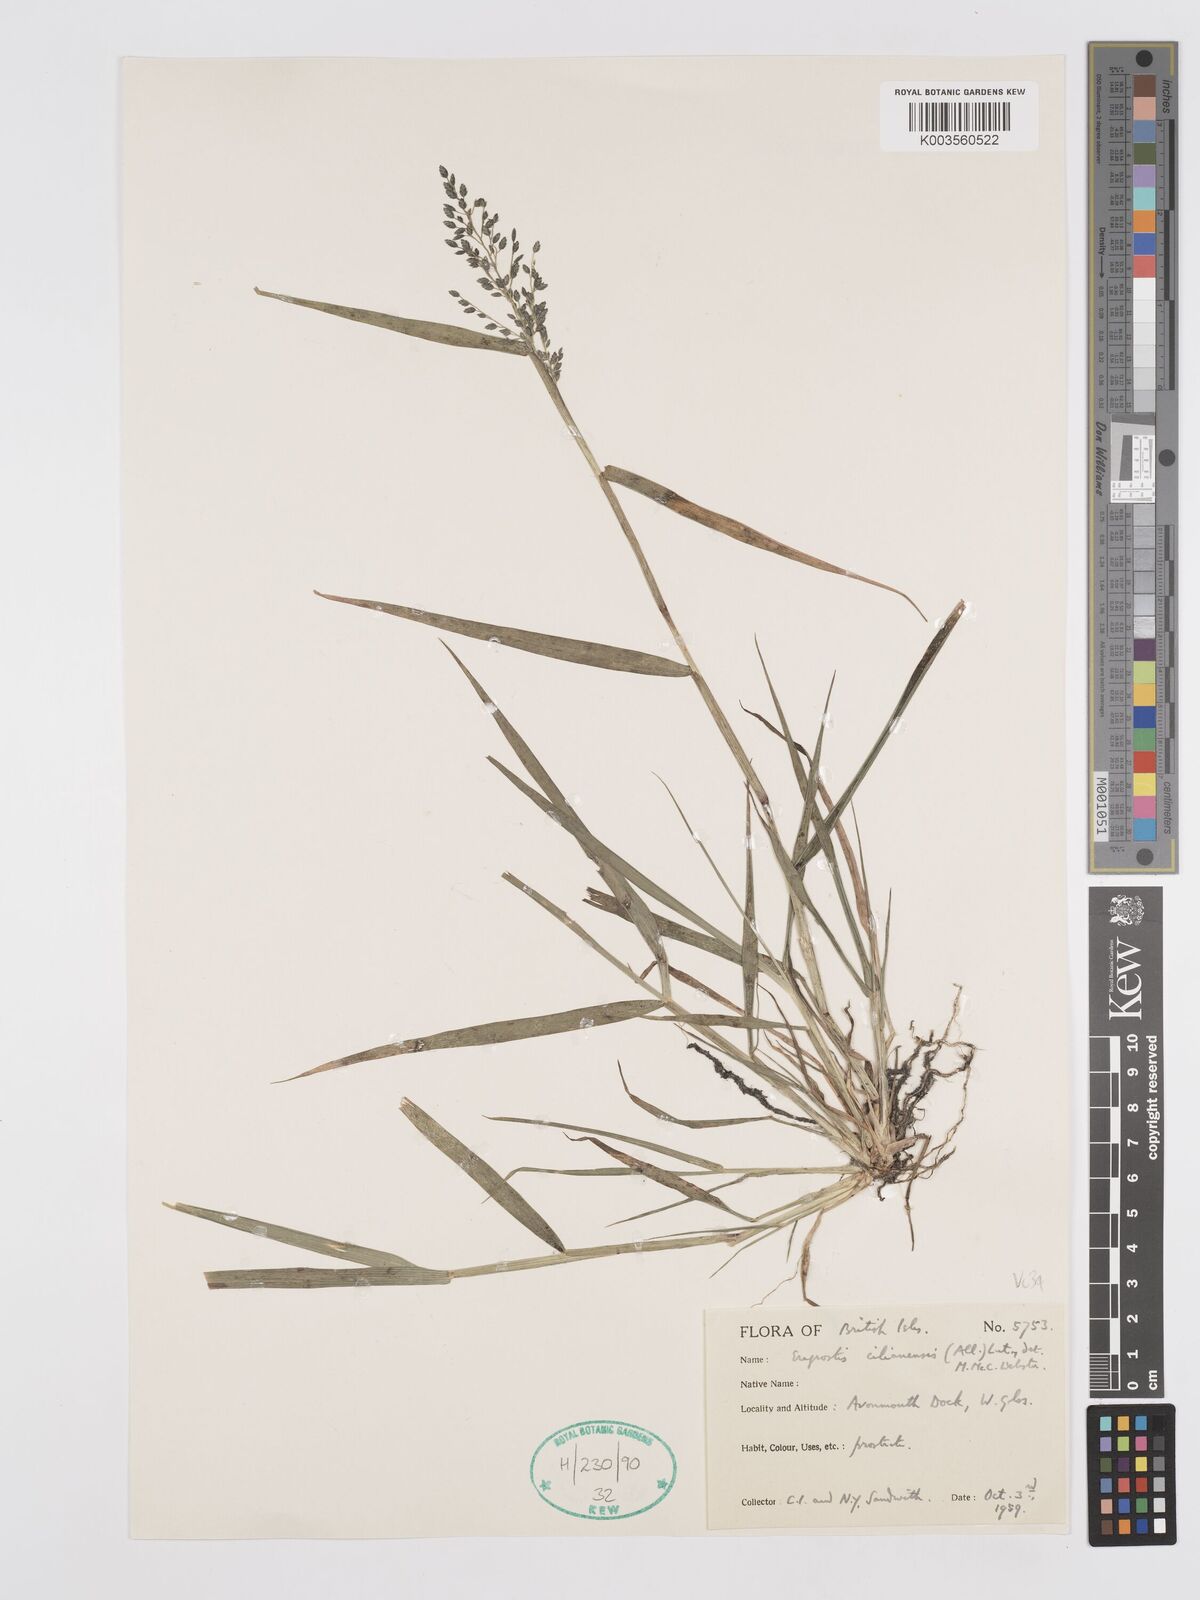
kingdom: Plantae
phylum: Tracheophyta
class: Liliopsida
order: Poales
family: Poaceae
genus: Eragrostis
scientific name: Eragrostis cilianensis
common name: Stinkgrass
